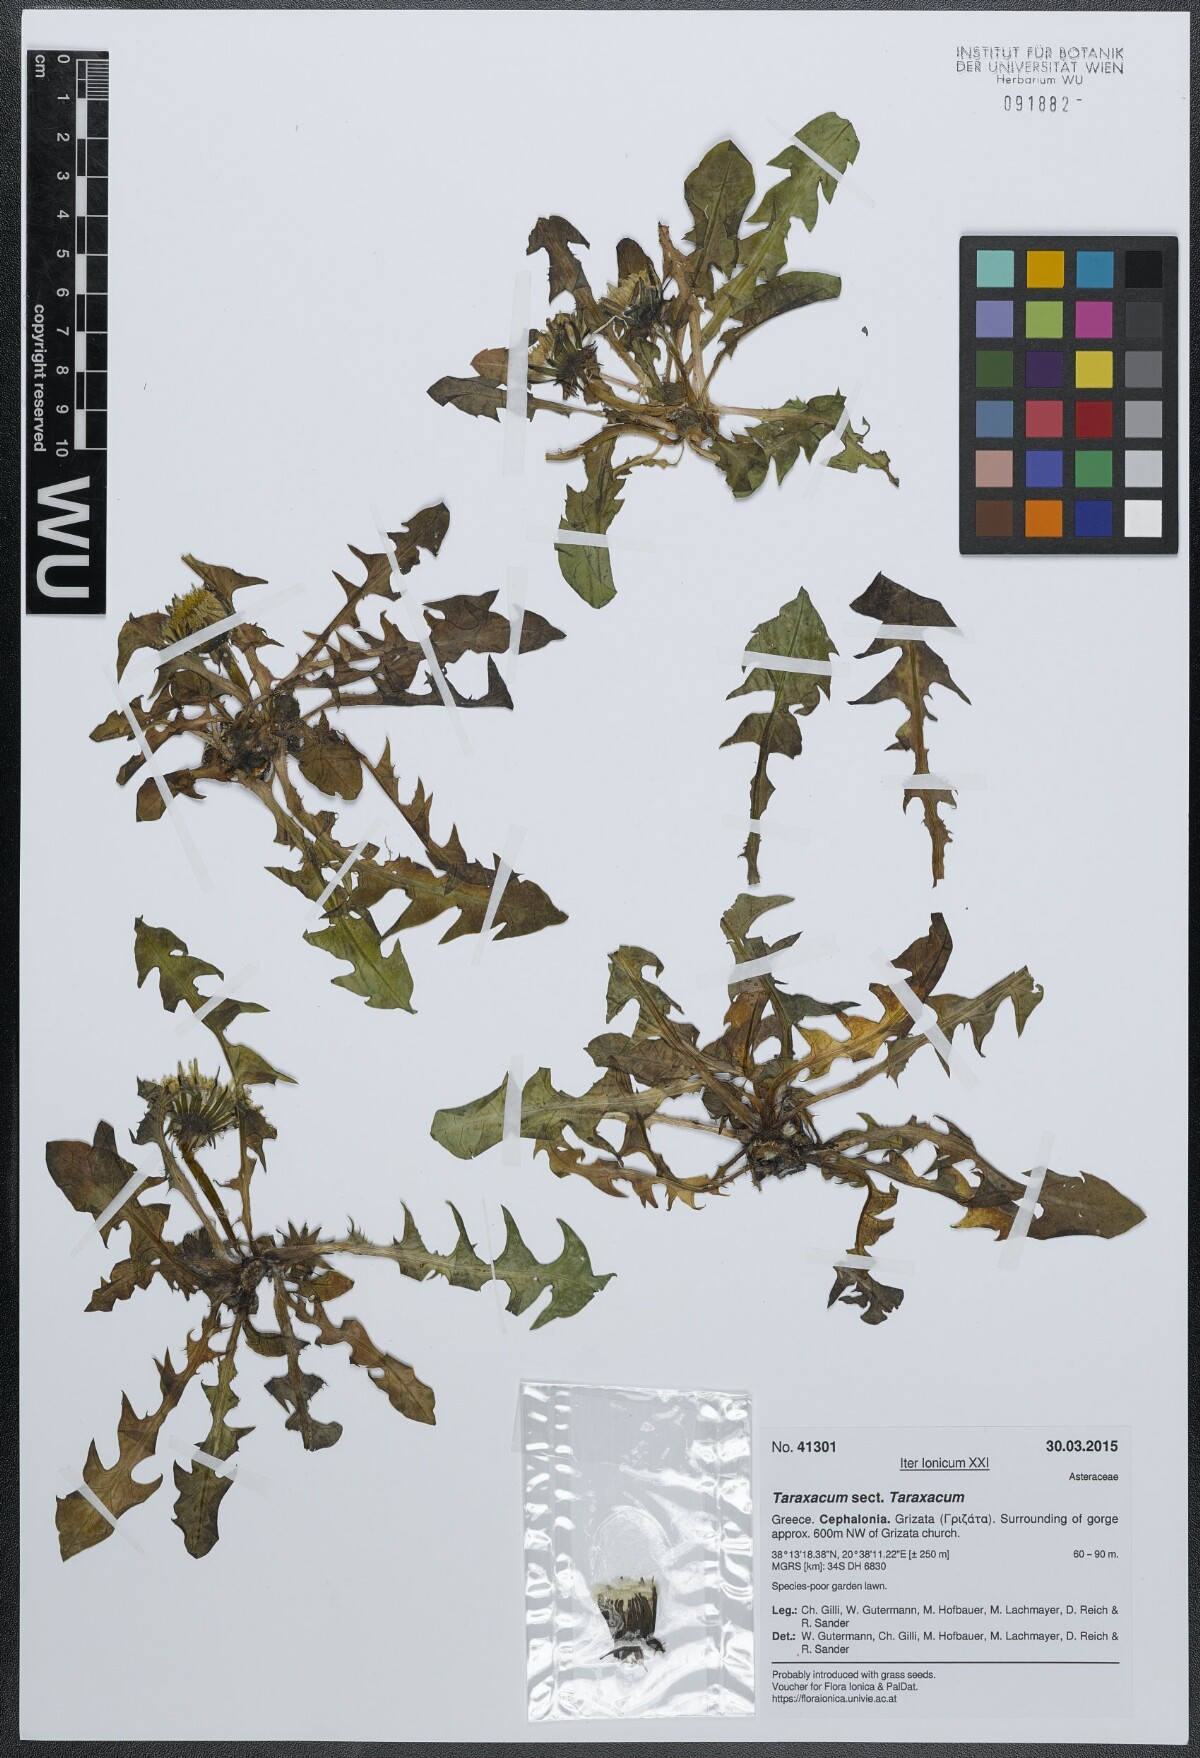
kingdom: Plantae
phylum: Tracheophyta
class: Magnoliopsida
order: Asterales
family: Asteraceae
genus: Taraxacum
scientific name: Taraxacum
